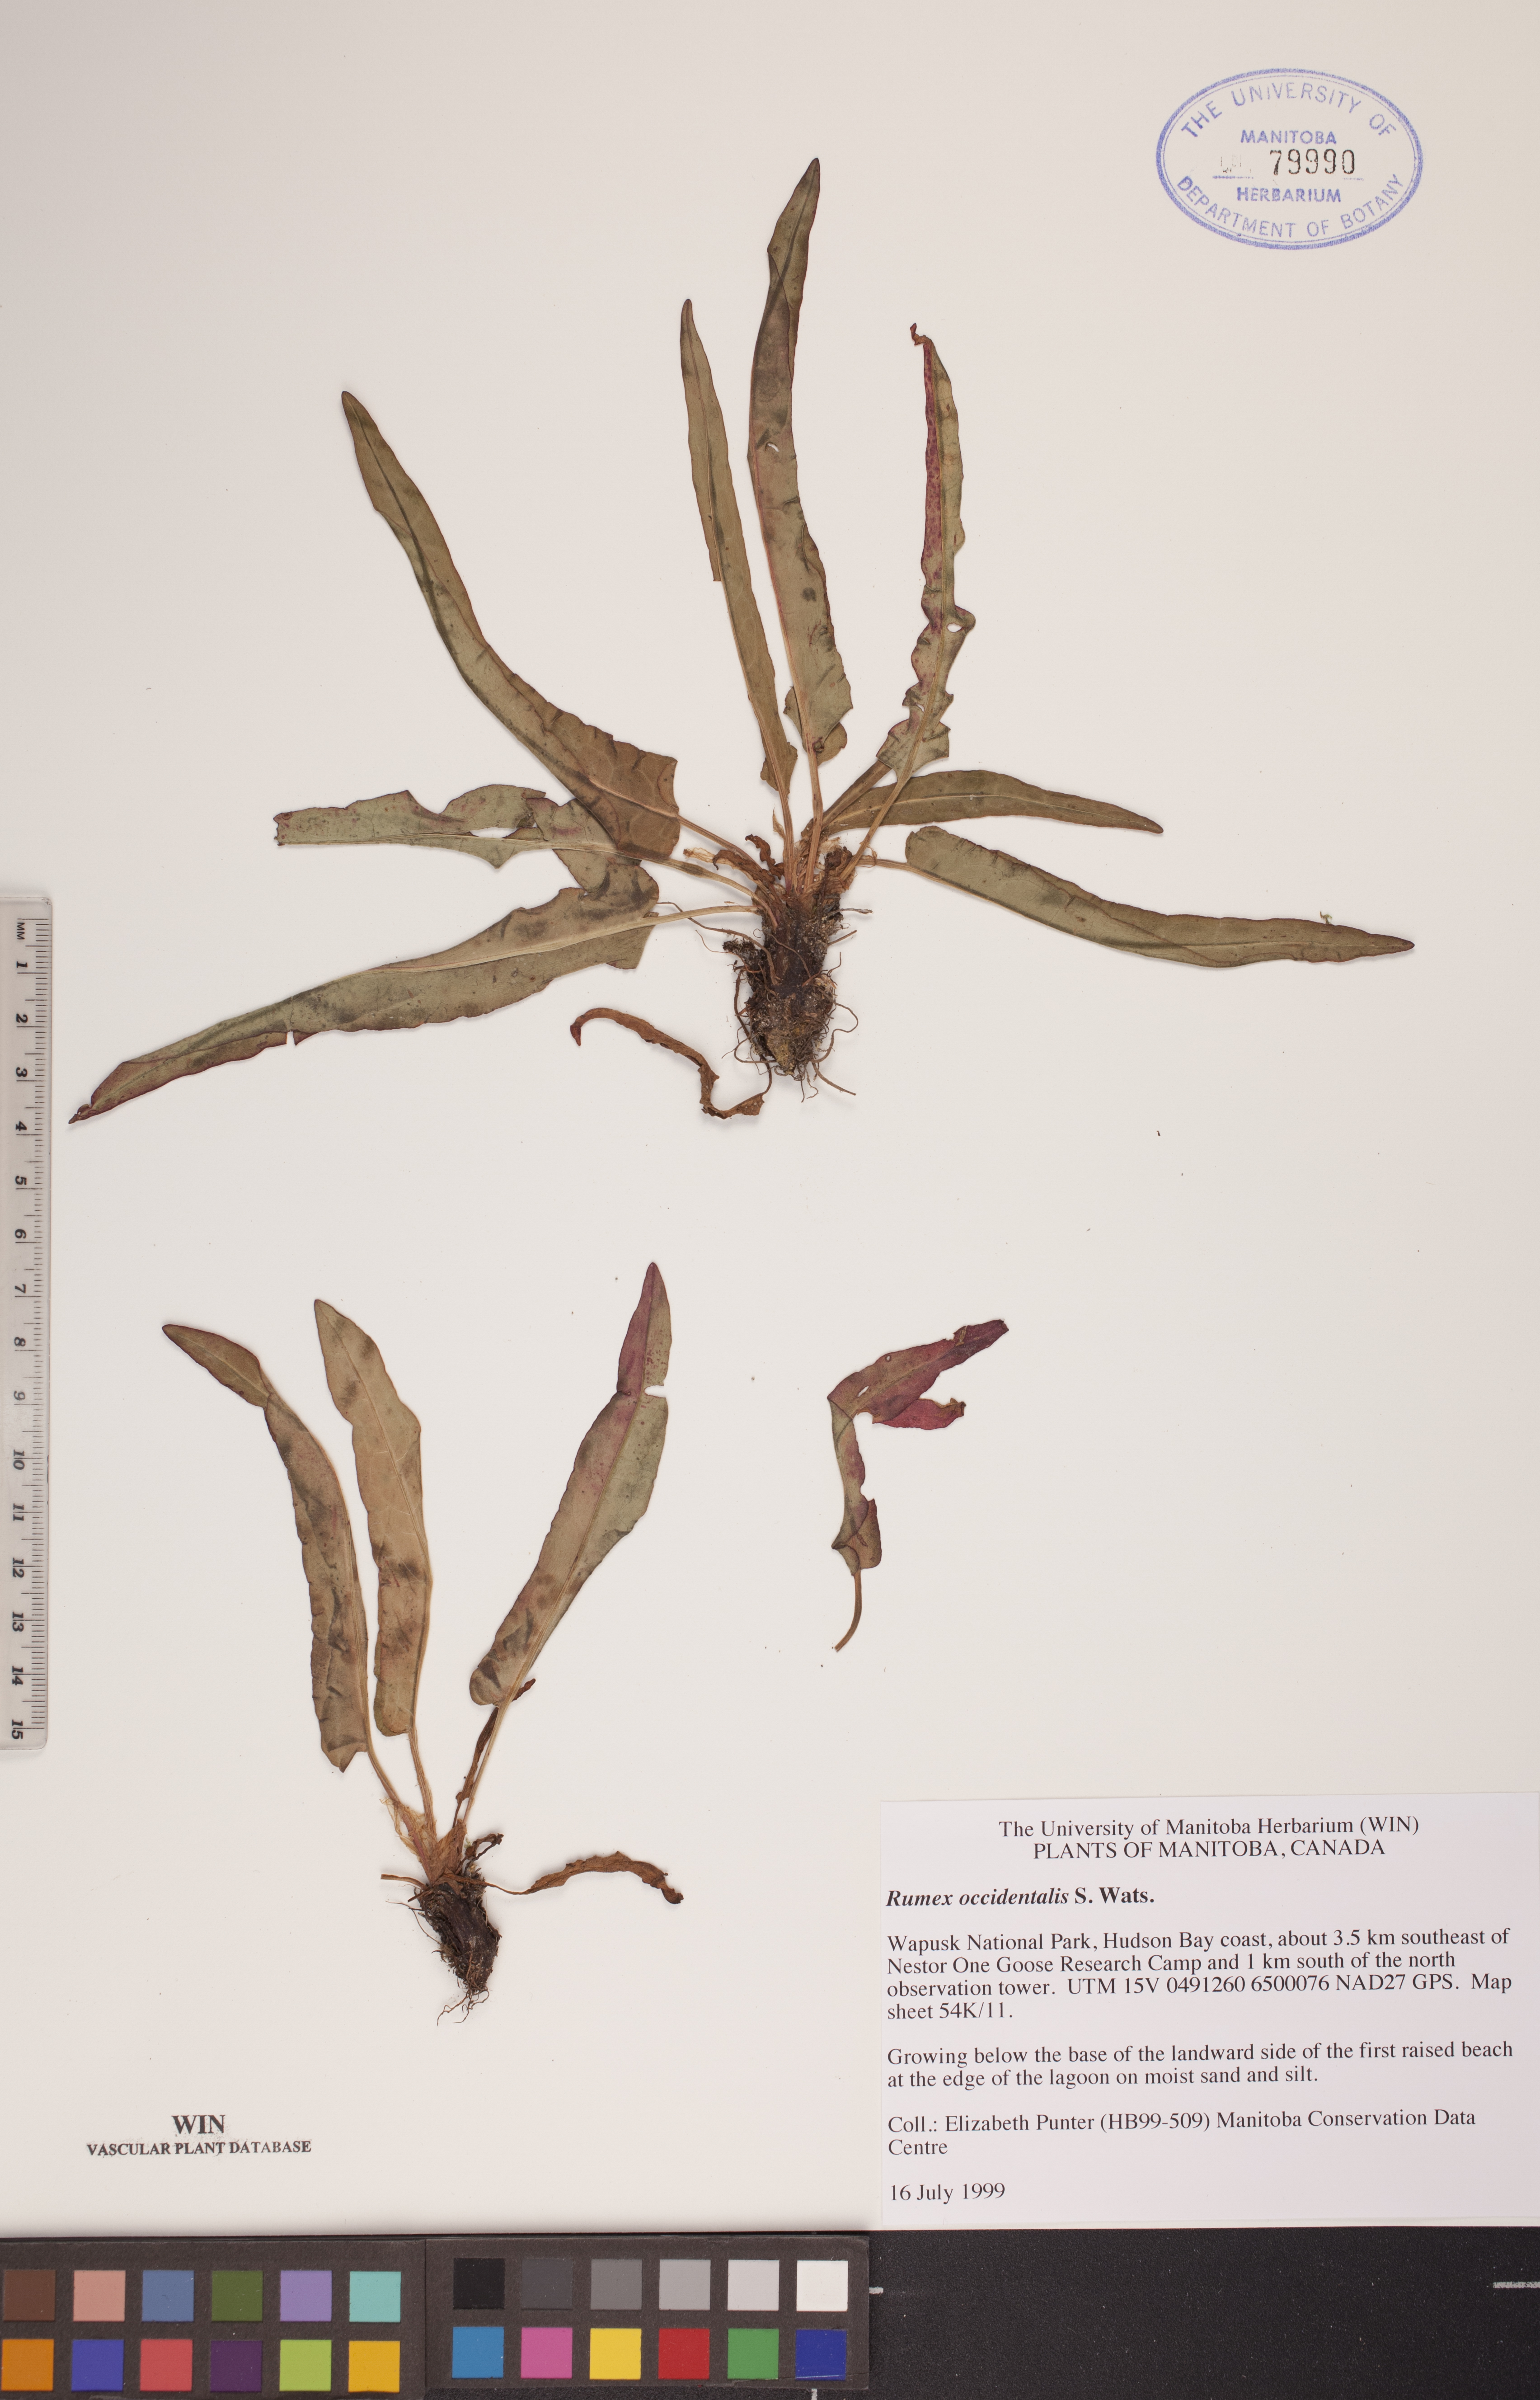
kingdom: Plantae
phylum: Tracheophyta
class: Magnoliopsida
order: Caryophyllales
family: Polygonaceae
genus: Rumex
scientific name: Rumex occidentalis
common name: Western dock
